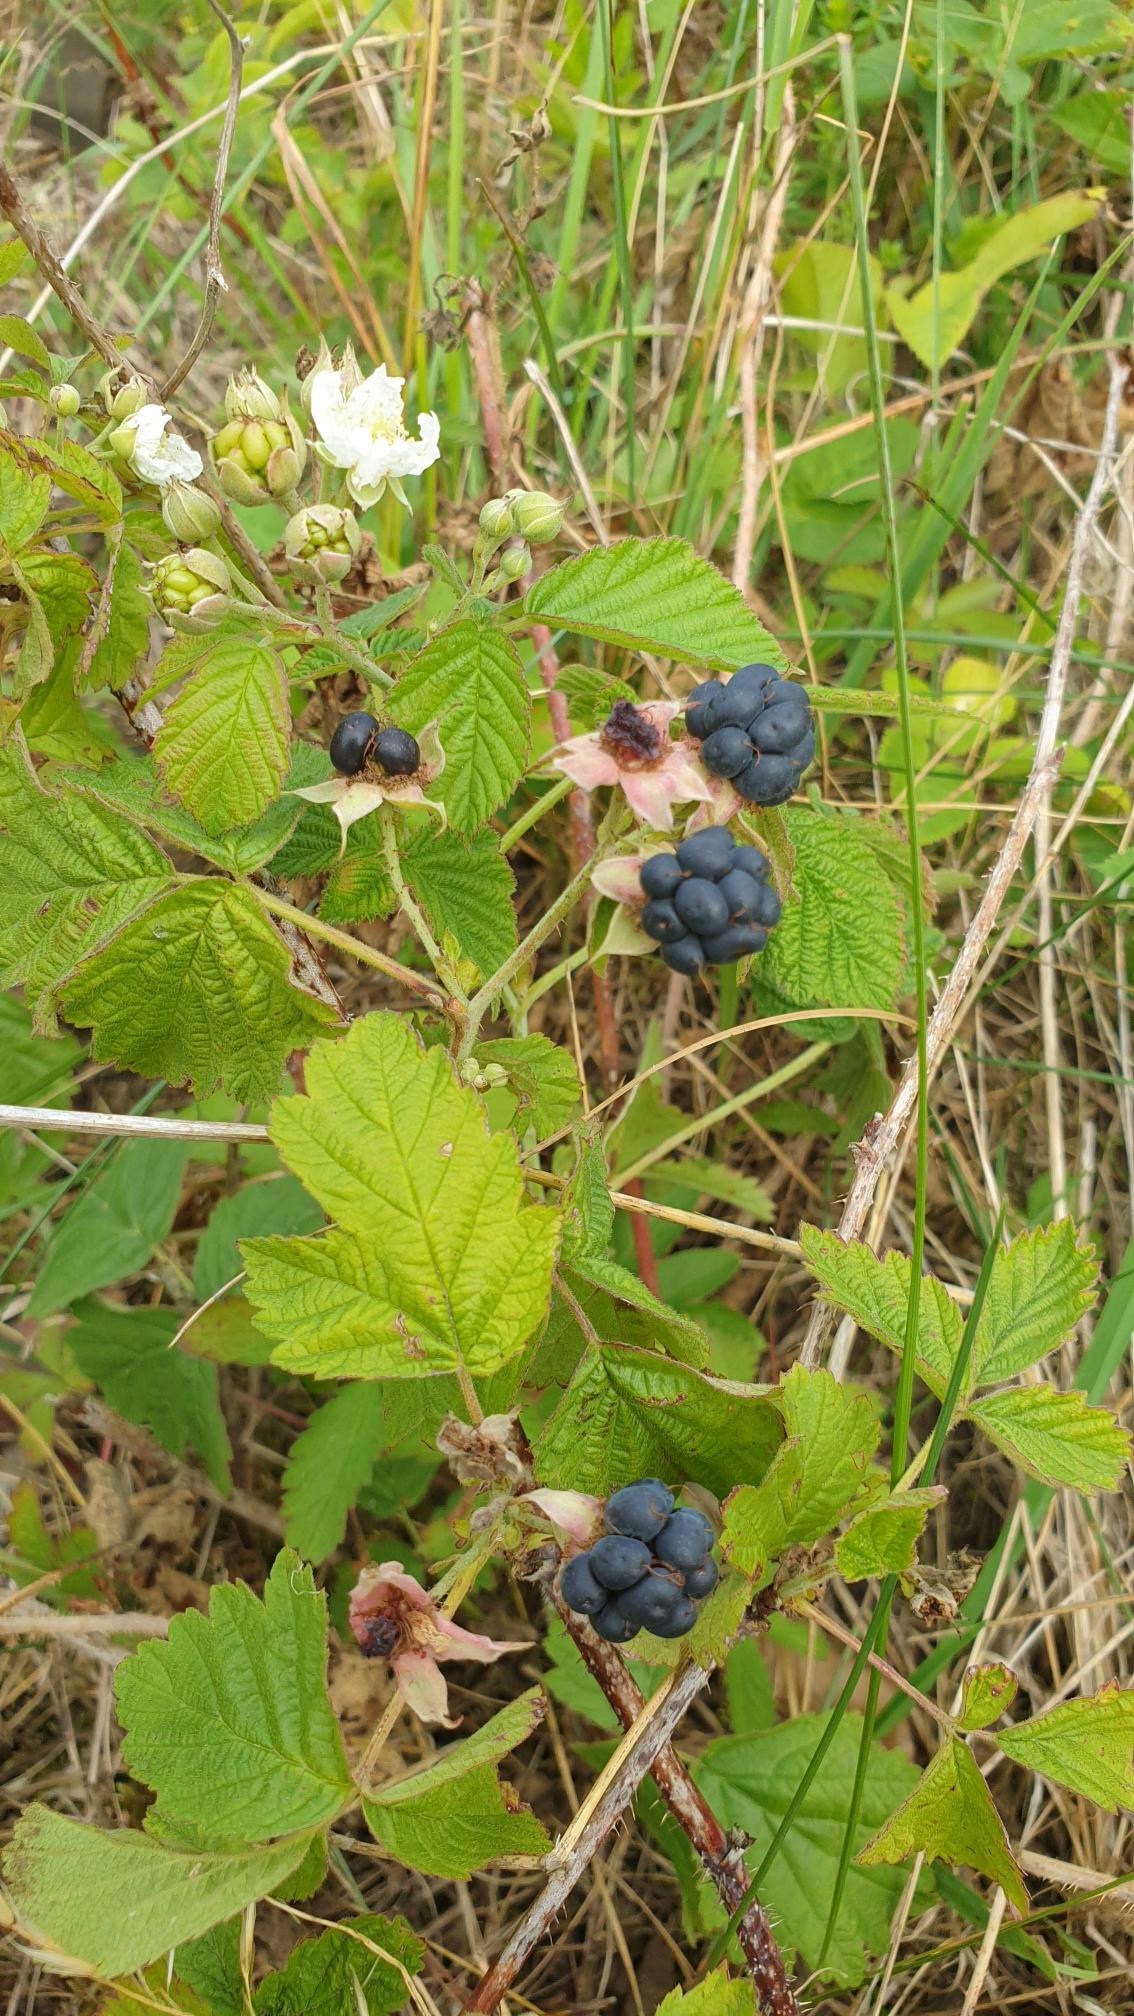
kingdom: Plantae
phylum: Tracheophyta
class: Magnoliopsida
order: Rosales
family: Rosaceae
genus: Rubus
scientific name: Rubus caesius
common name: Korbær
